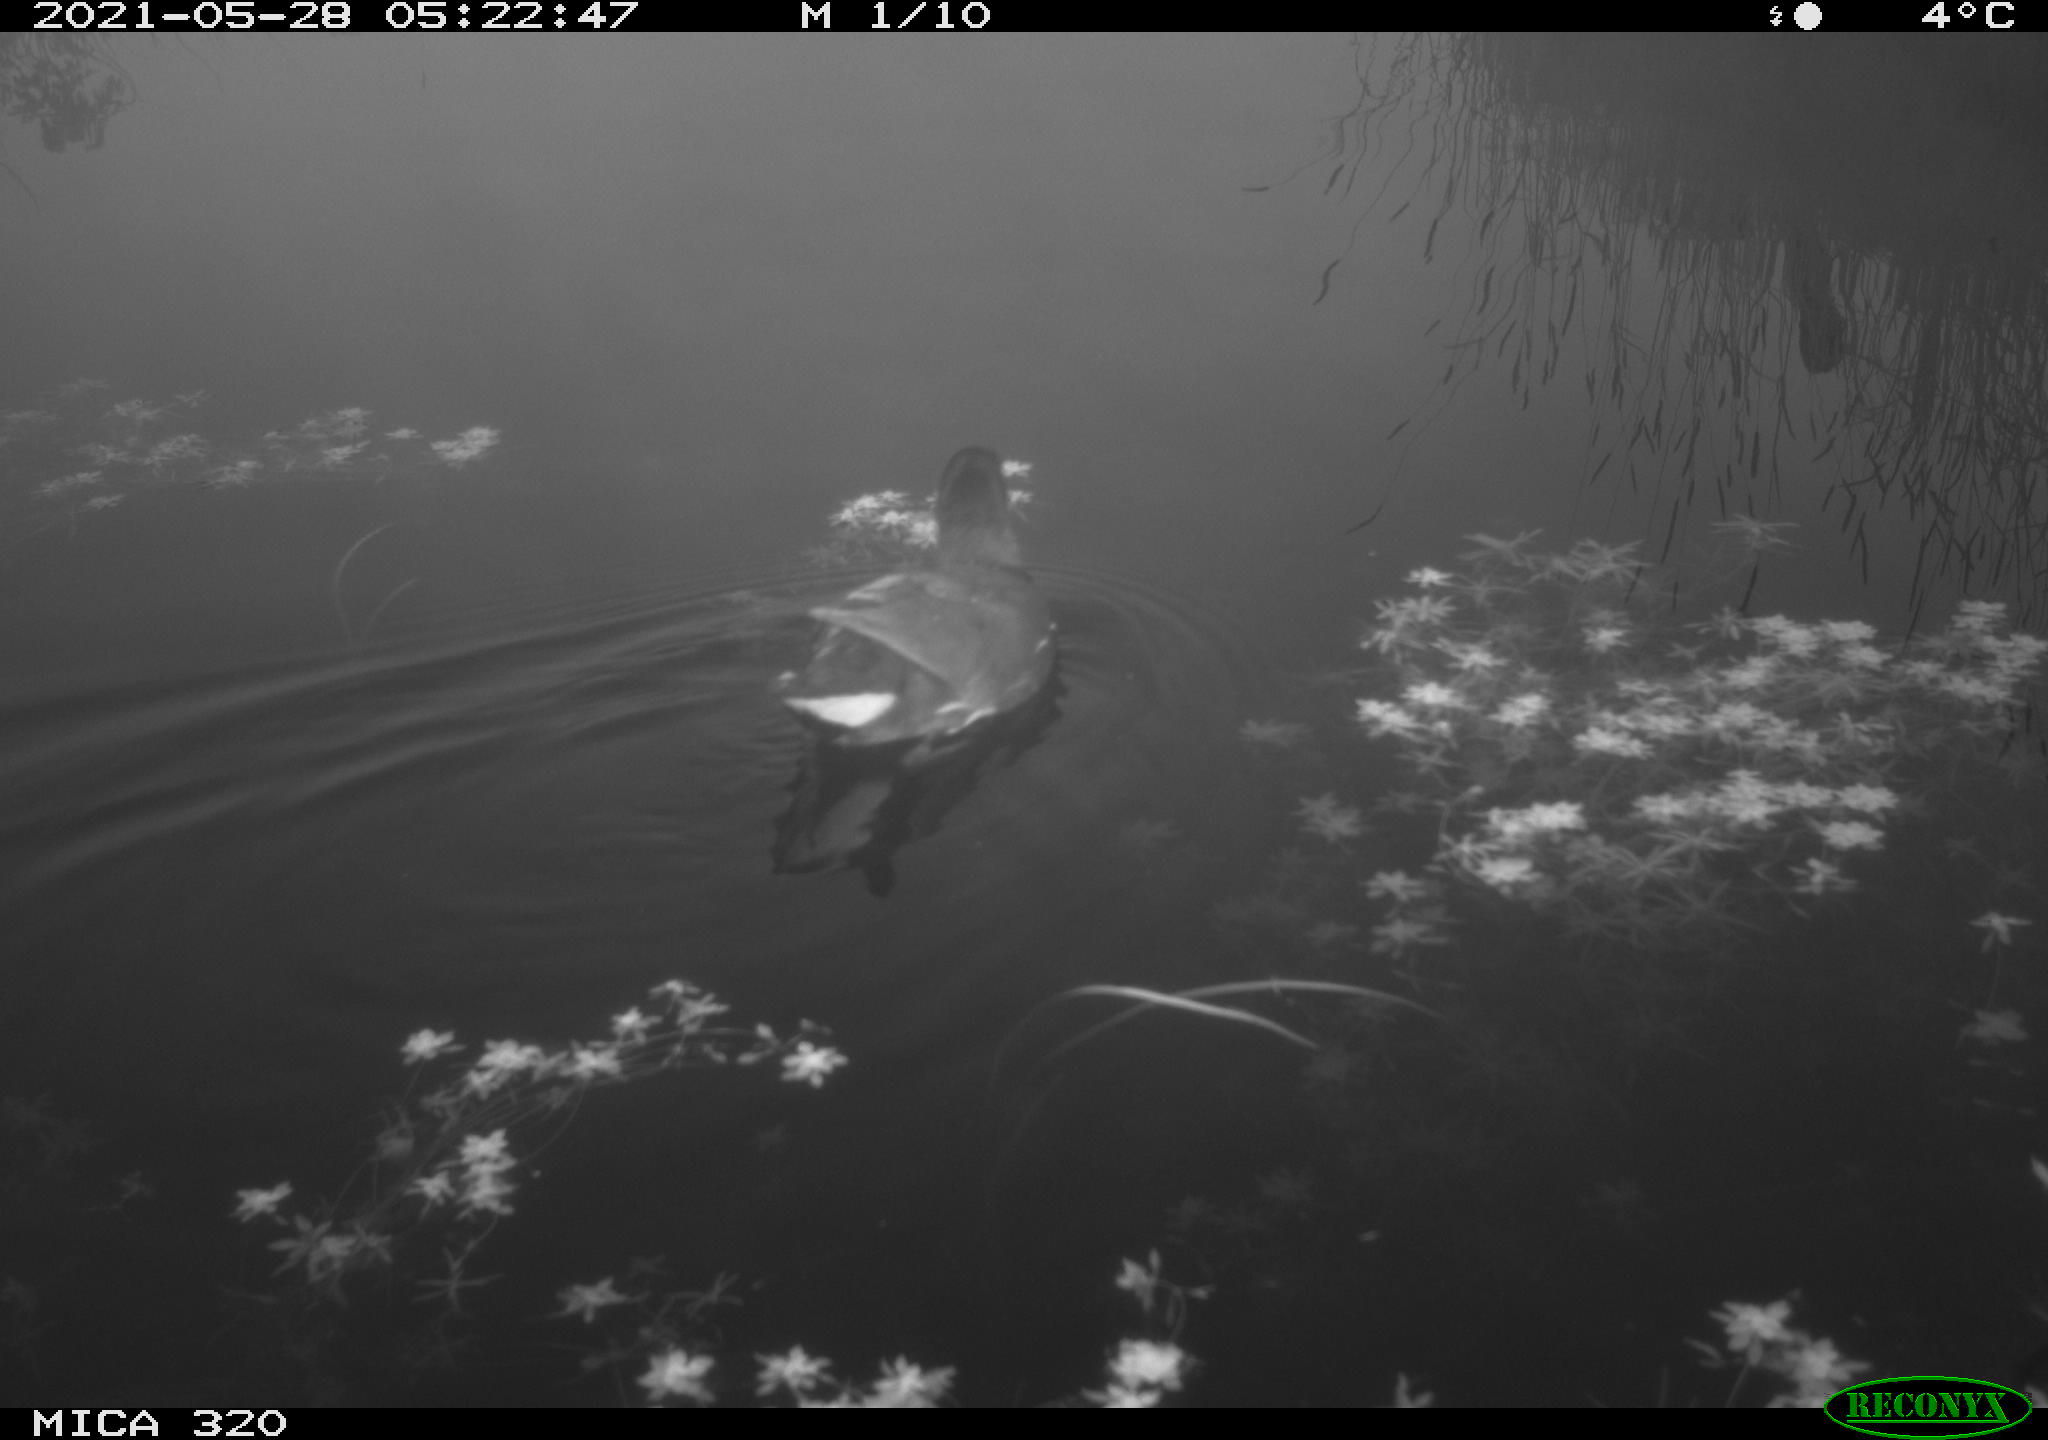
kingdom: Animalia
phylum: Chordata
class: Aves
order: Gruiformes
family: Rallidae
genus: Gallinula
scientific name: Gallinula chloropus
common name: Common moorhen
